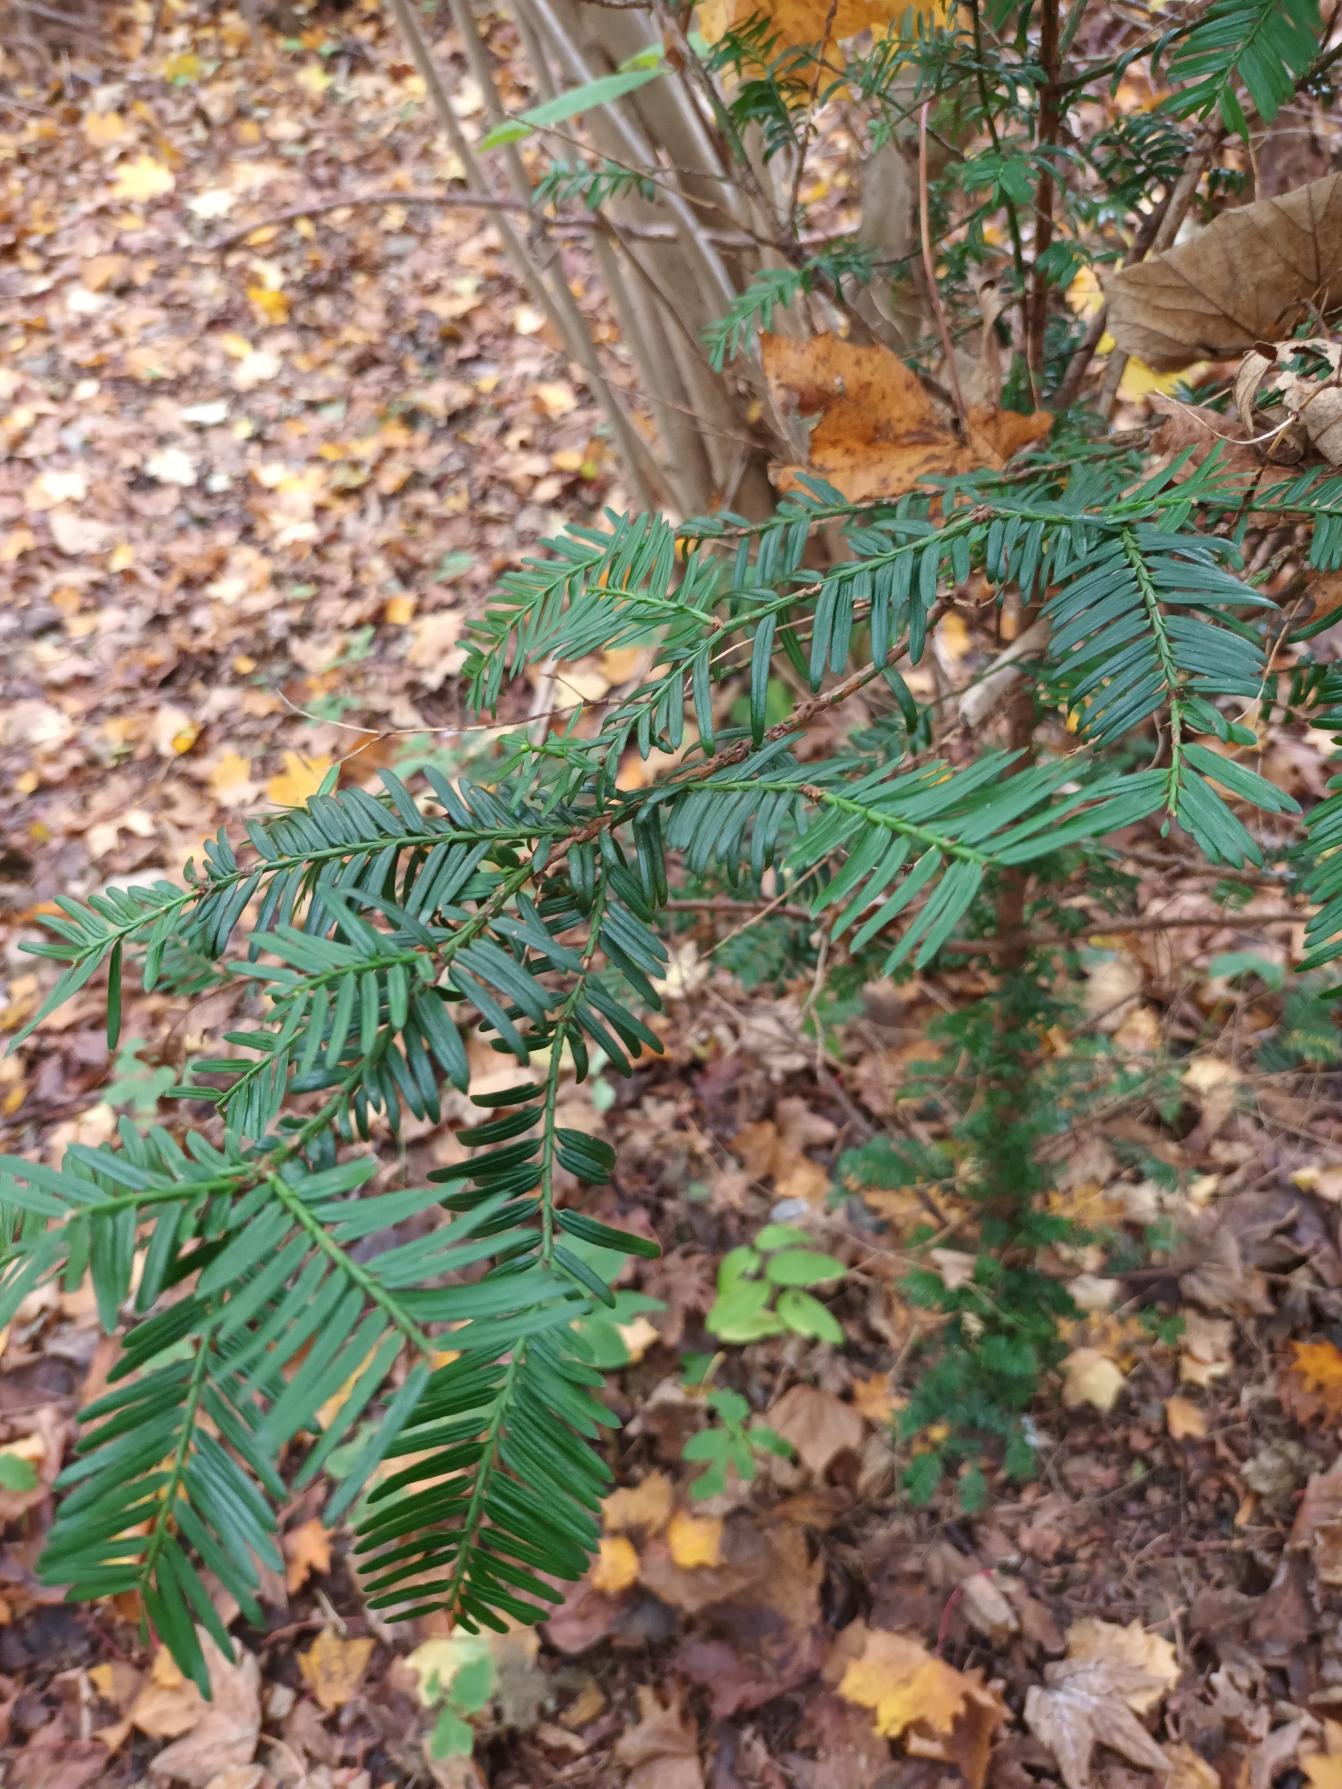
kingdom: Plantae
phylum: Tracheophyta
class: Pinopsida
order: Pinales
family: Taxaceae
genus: Taxus
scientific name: Taxus baccata
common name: Almindelig taks
